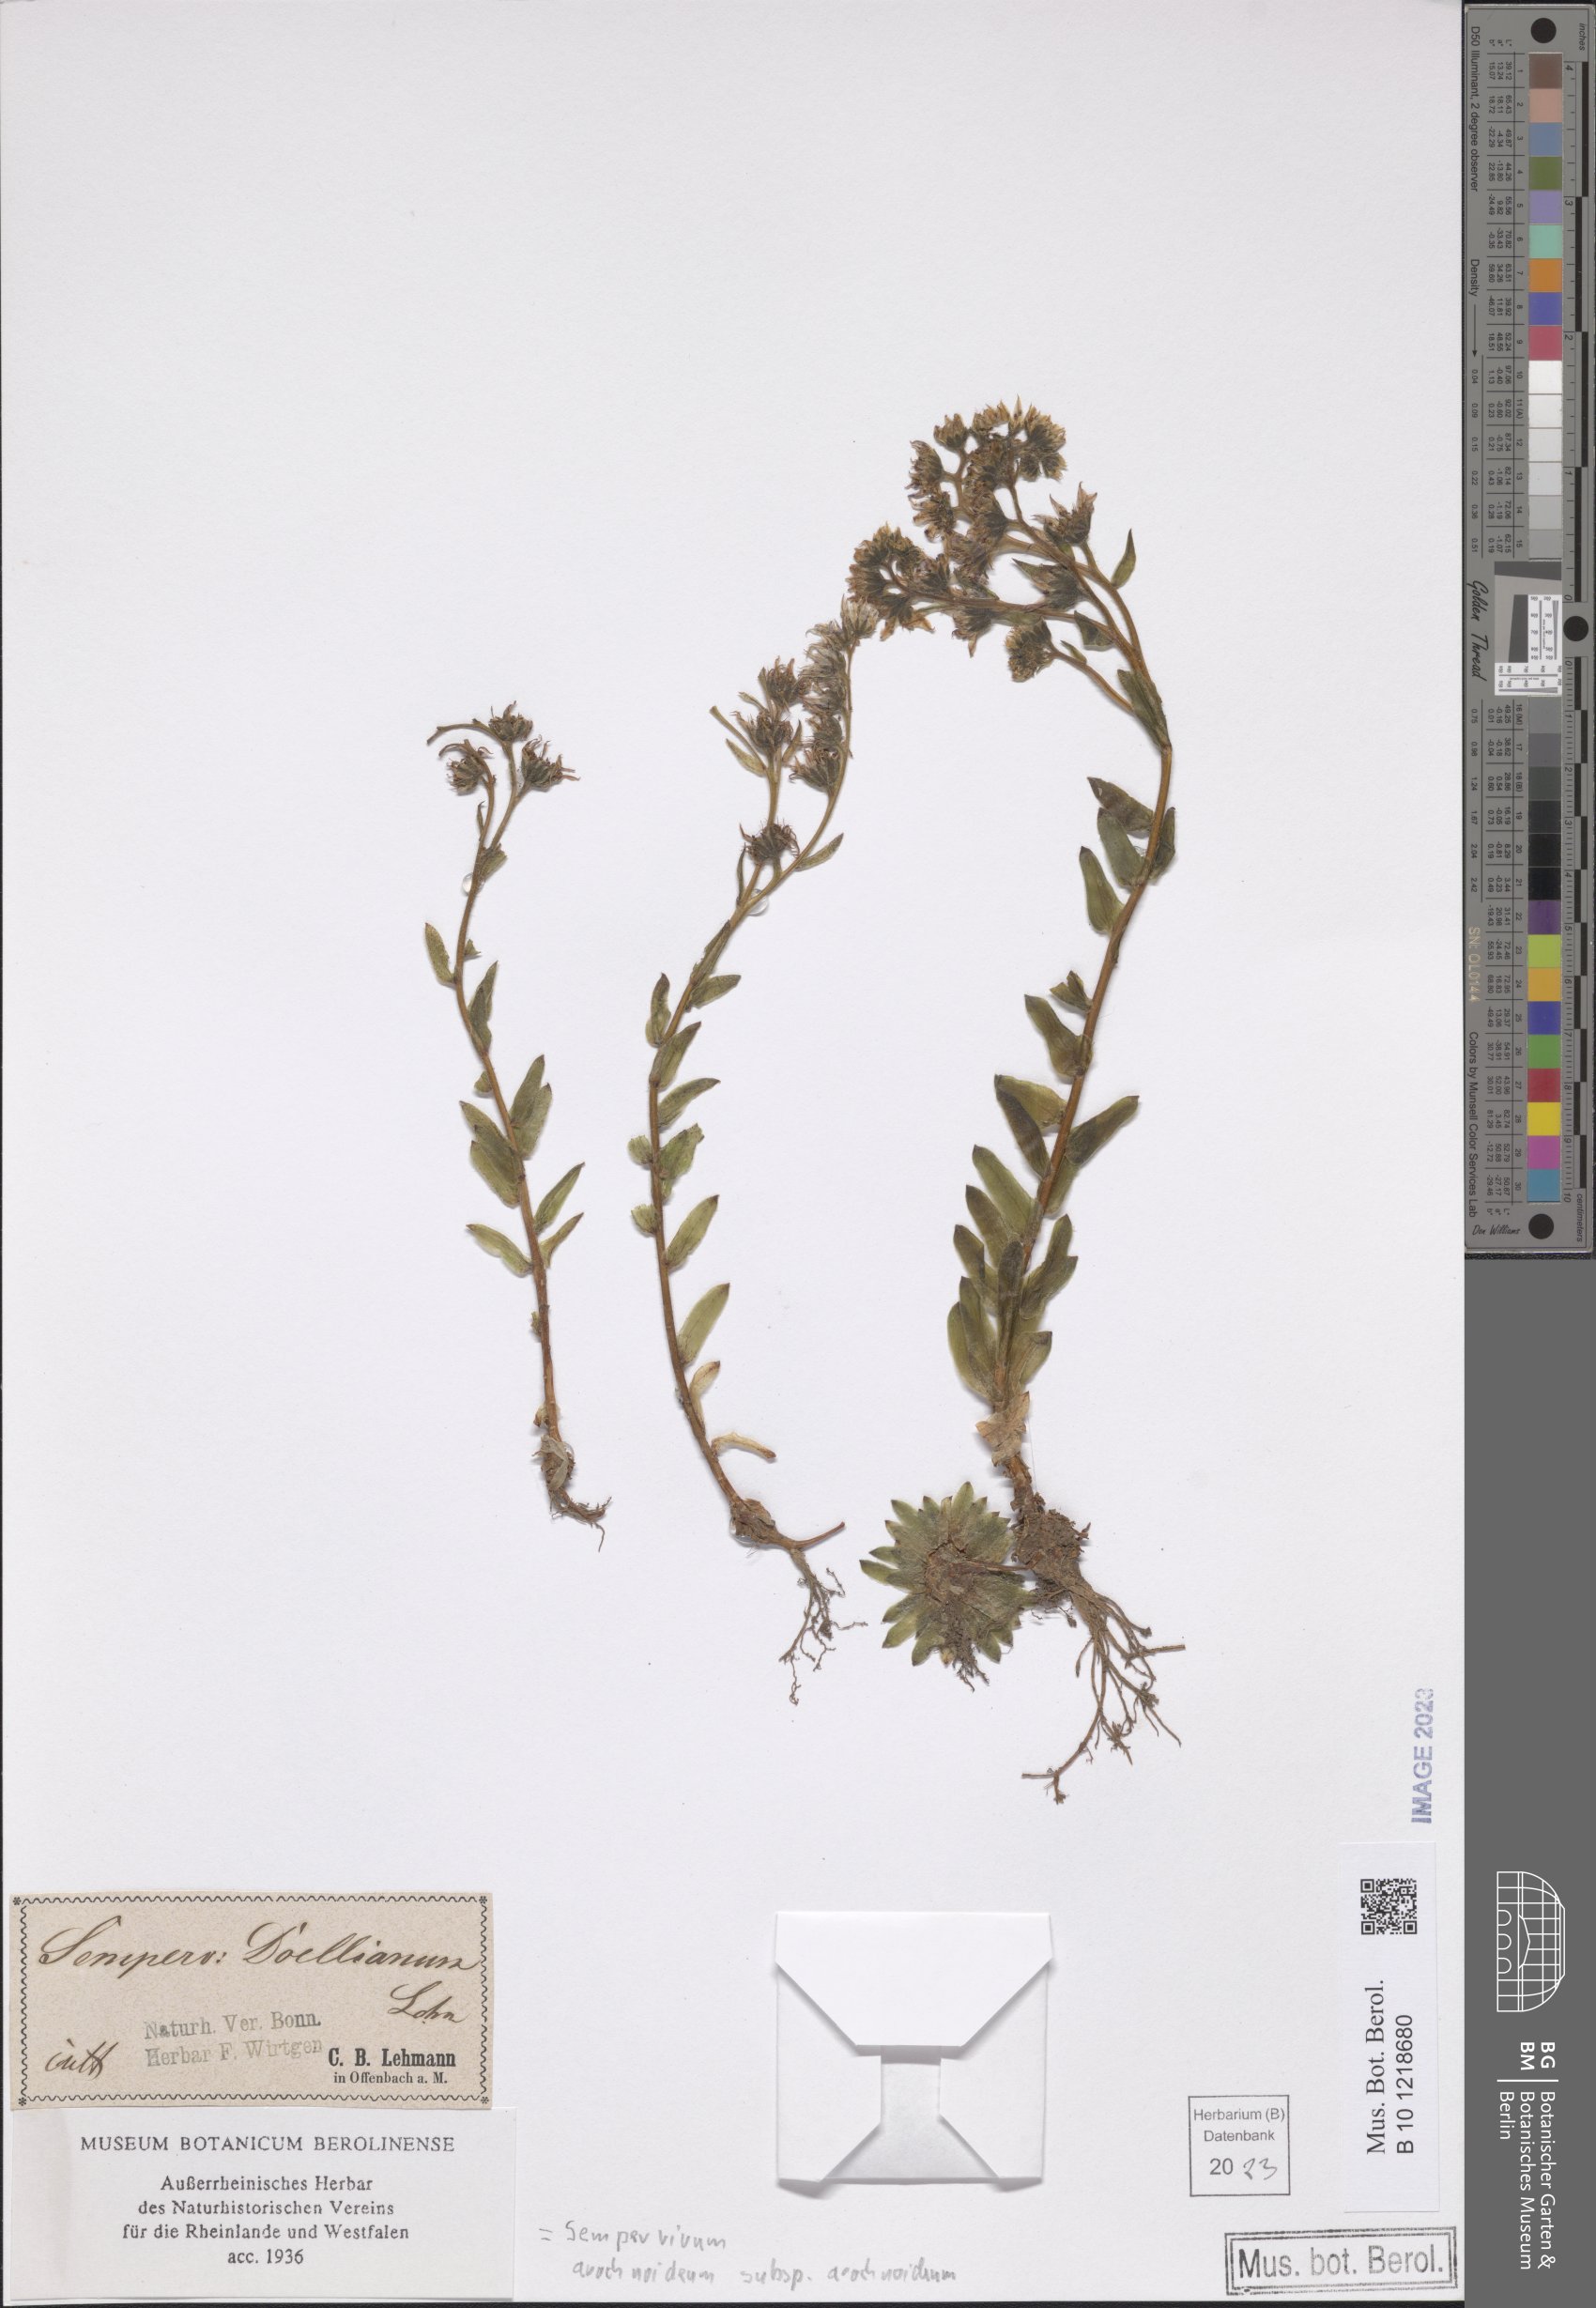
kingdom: Plantae
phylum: Tracheophyta
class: Magnoliopsida
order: Saxifragales
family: Crassulaceae
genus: Sempervivum
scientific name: Sempervivum arachnoideum
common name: Cobweb house-leek
